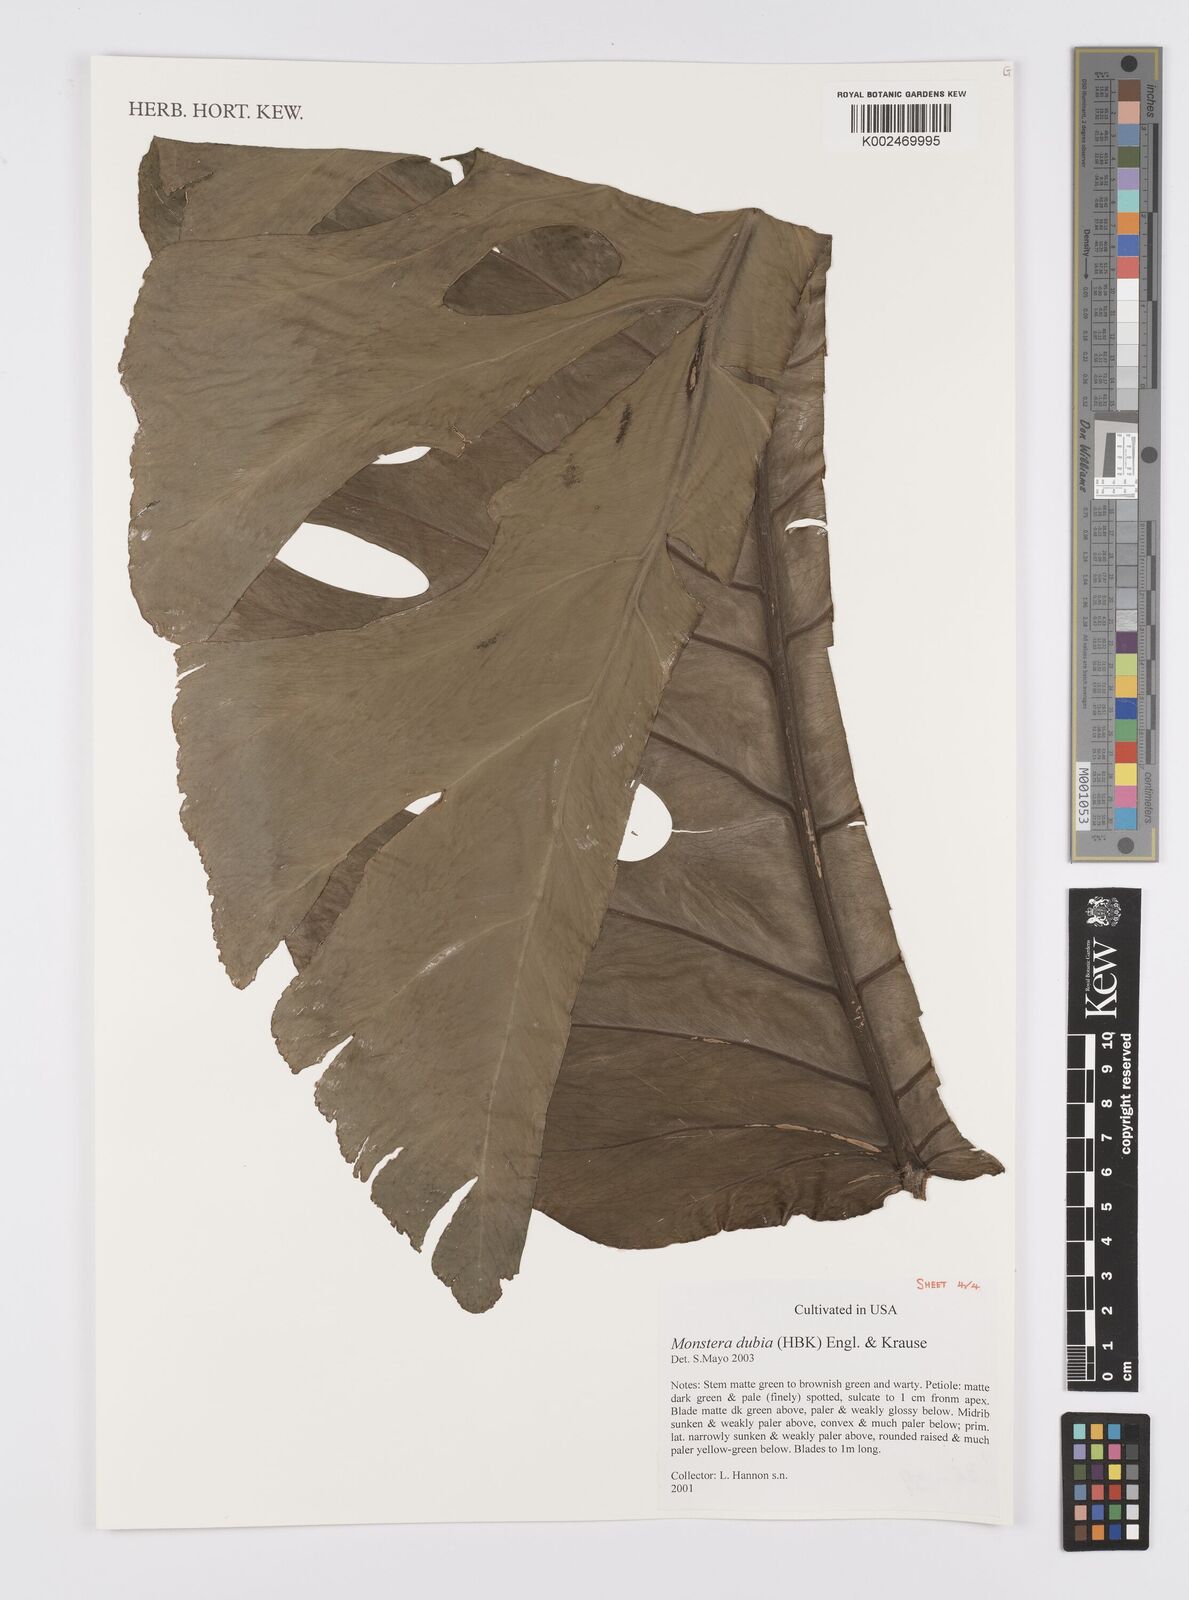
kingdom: Plantae
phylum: Tracheophyta
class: Liliopsida
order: Alismatales
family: Araceae
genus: Monstera
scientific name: Monstera dubia
